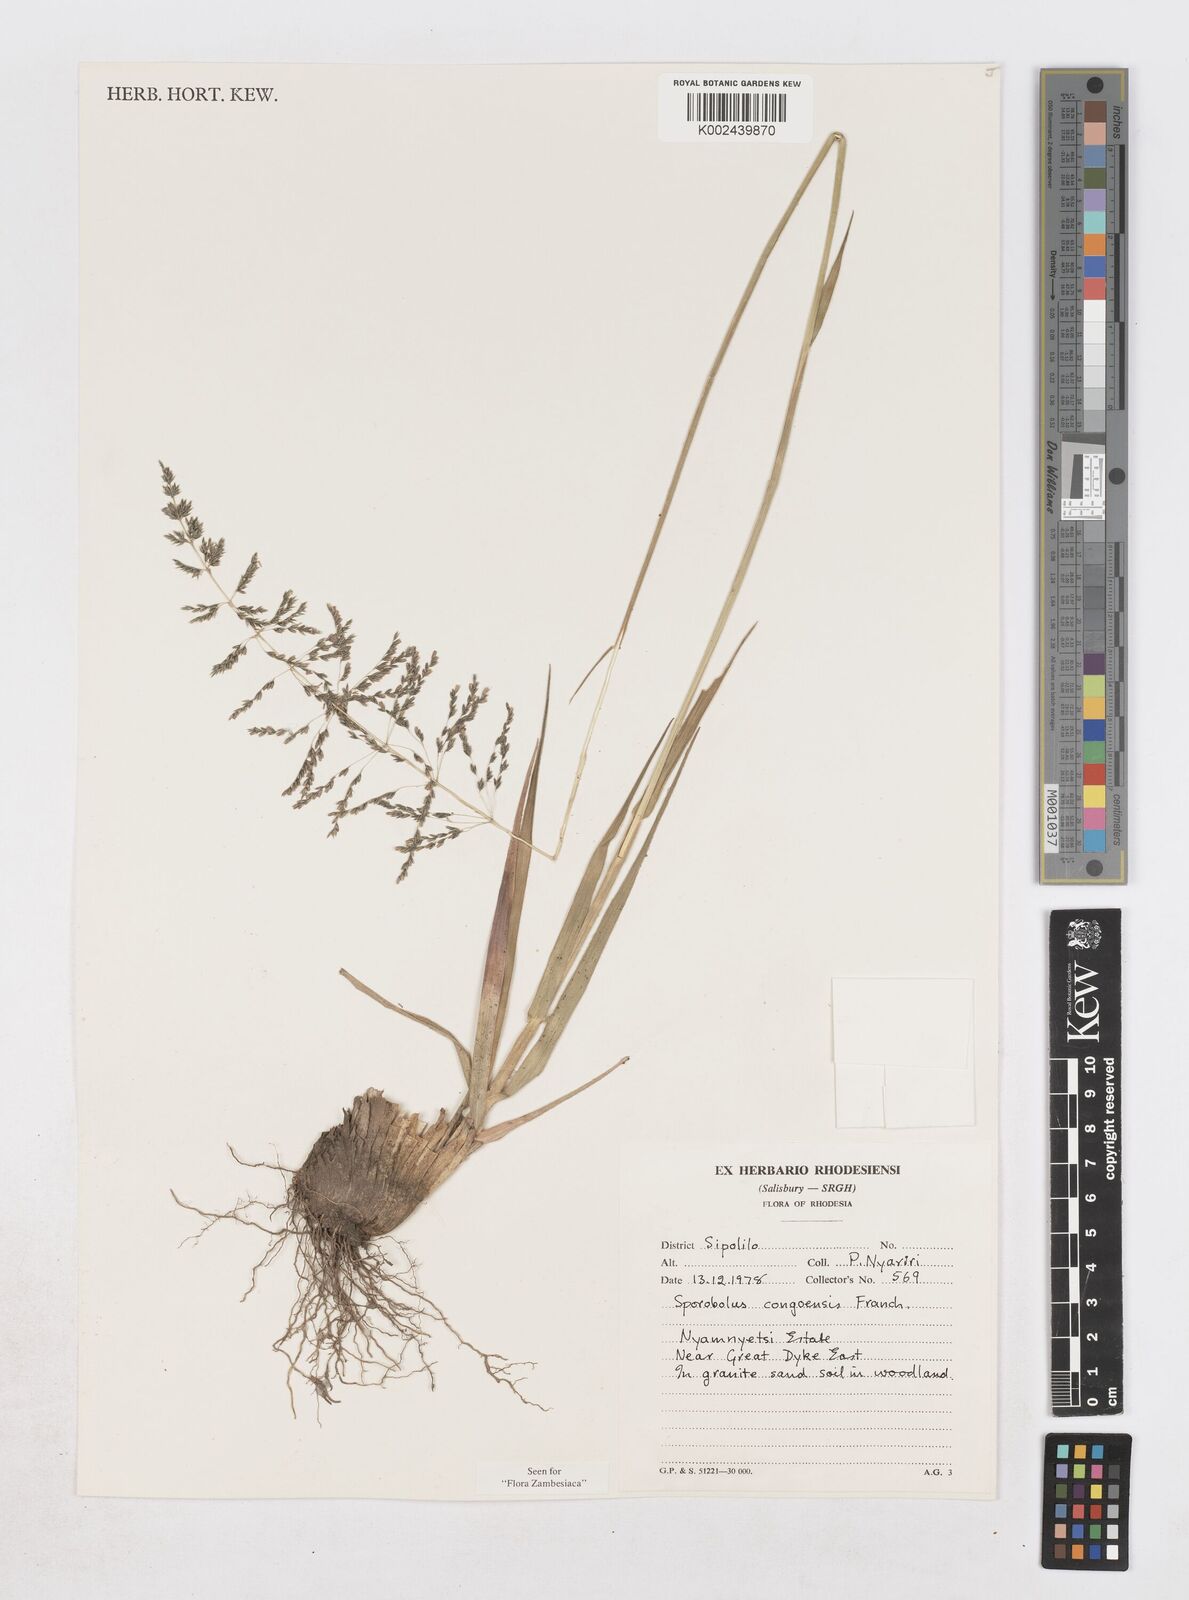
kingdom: Plantae
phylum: Tracheophyta
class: Liliopsida
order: Poales
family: Poaceae
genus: Sporobolus
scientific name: Sporobolus congoensis
